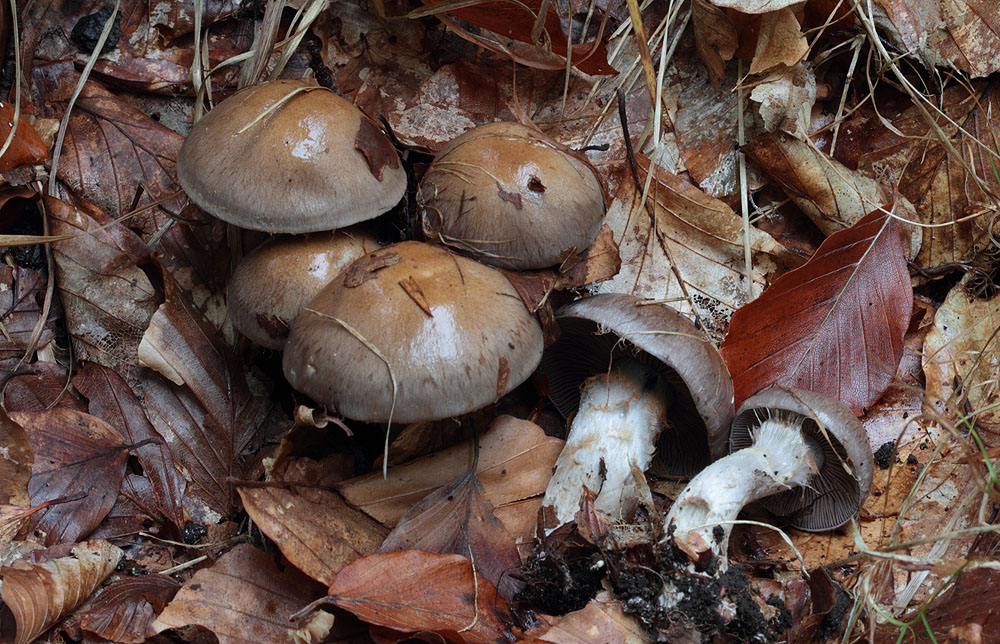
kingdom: Fungi
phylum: Basidiomycota
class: Agaricomycetes
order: Agaricales
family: Cortinariaceae
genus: Cortinarius
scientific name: Cortinarius
